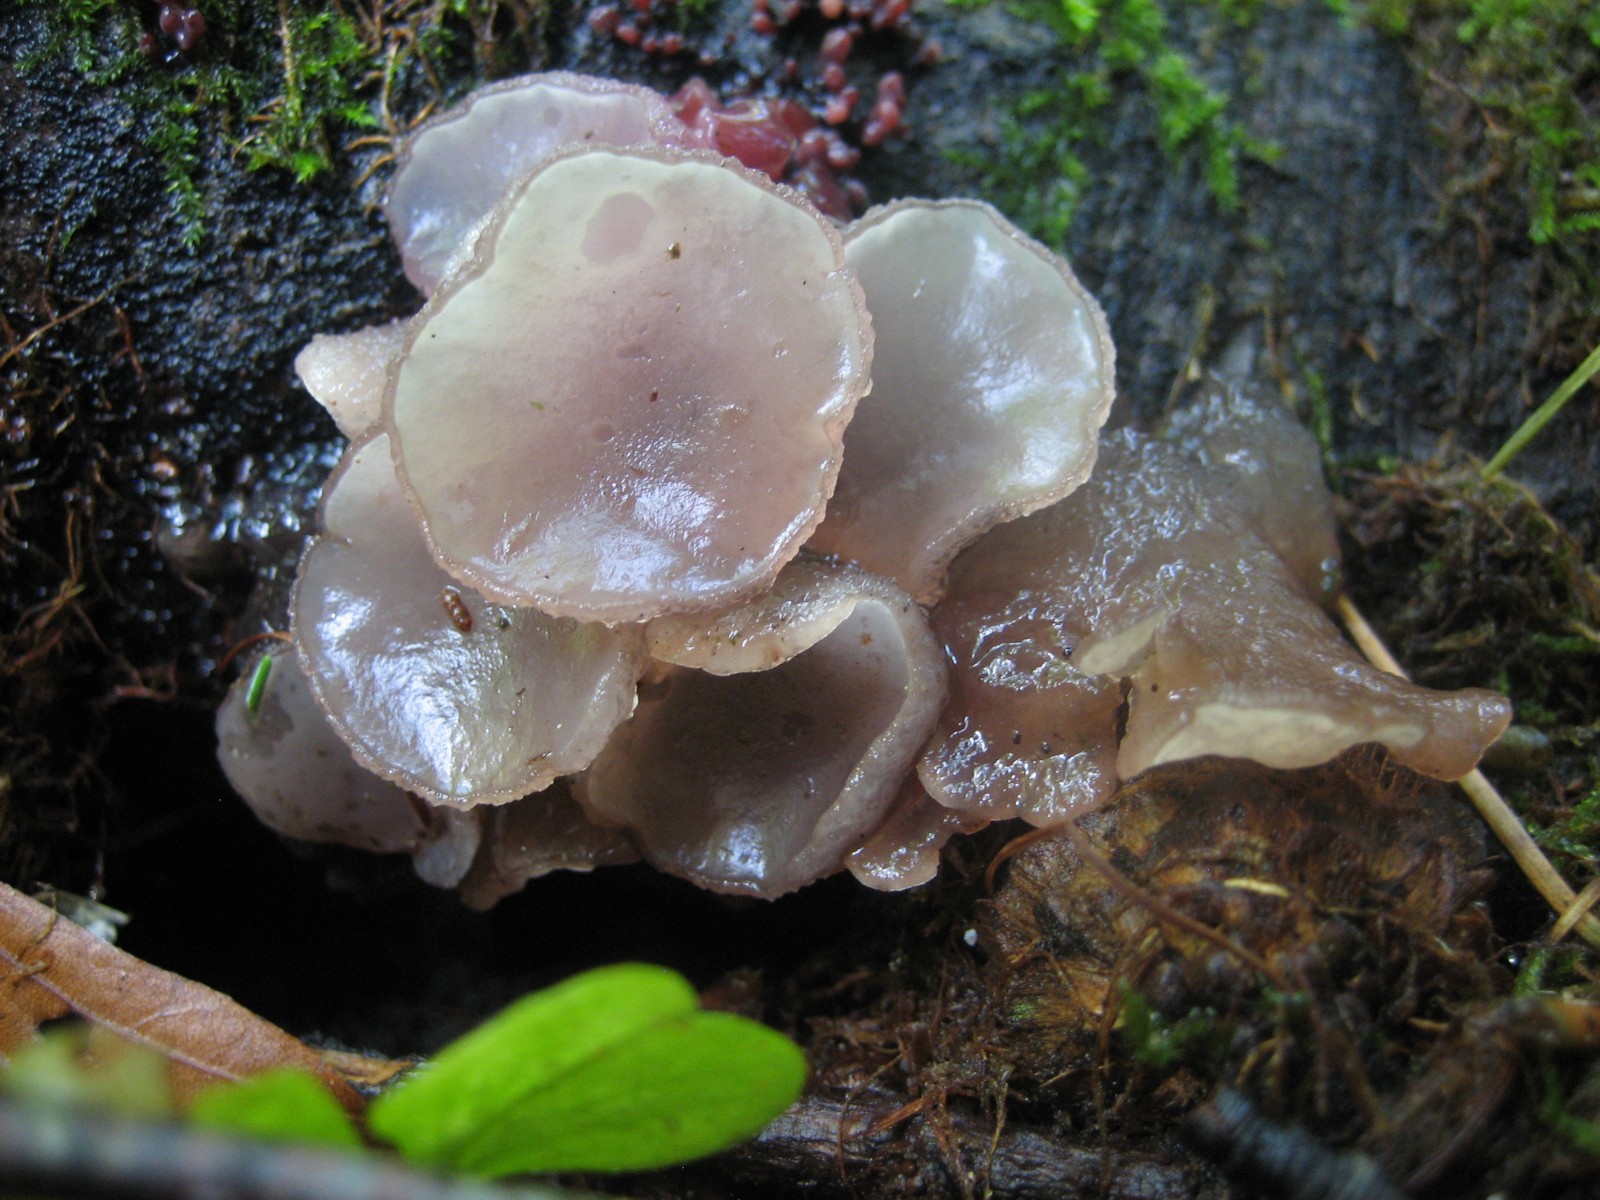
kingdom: Fungi
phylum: Ascomycota
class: Leotiomycetes
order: Helotiales
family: Gelatinodiscaceae
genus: Neobulgaria
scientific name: Neobulgaria pura
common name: bleg bævreskive
